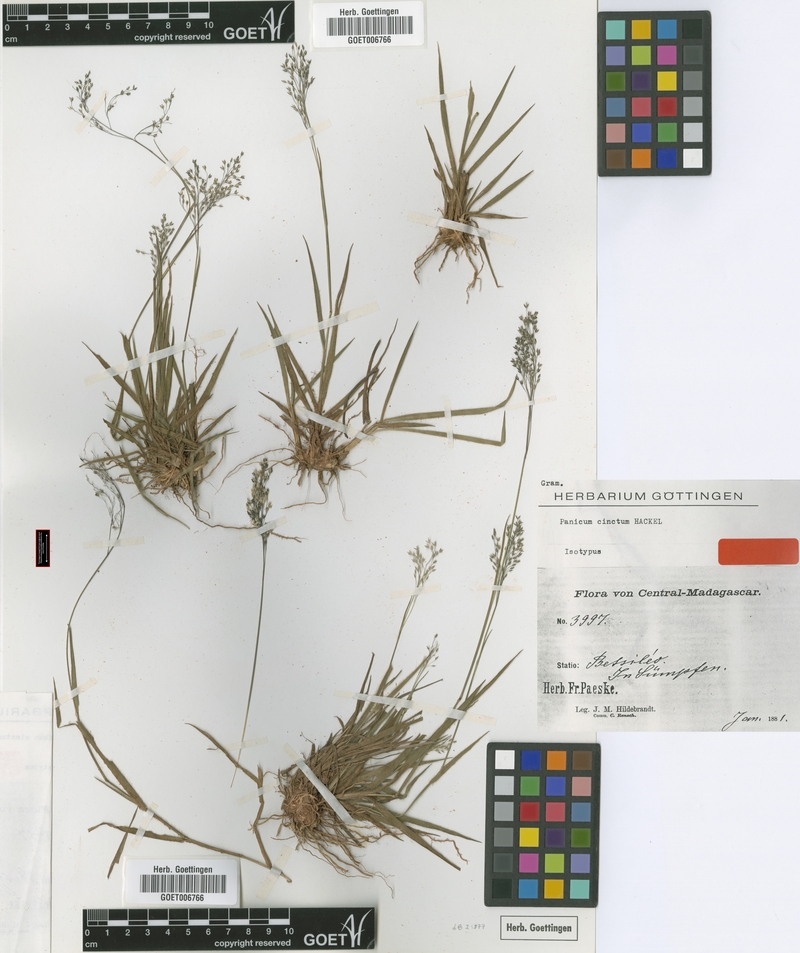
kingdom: Plantae
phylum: Tracheophyta
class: Liliopsida
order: Poales
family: Poaceae
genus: Panicum
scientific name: Panicum cinctum
